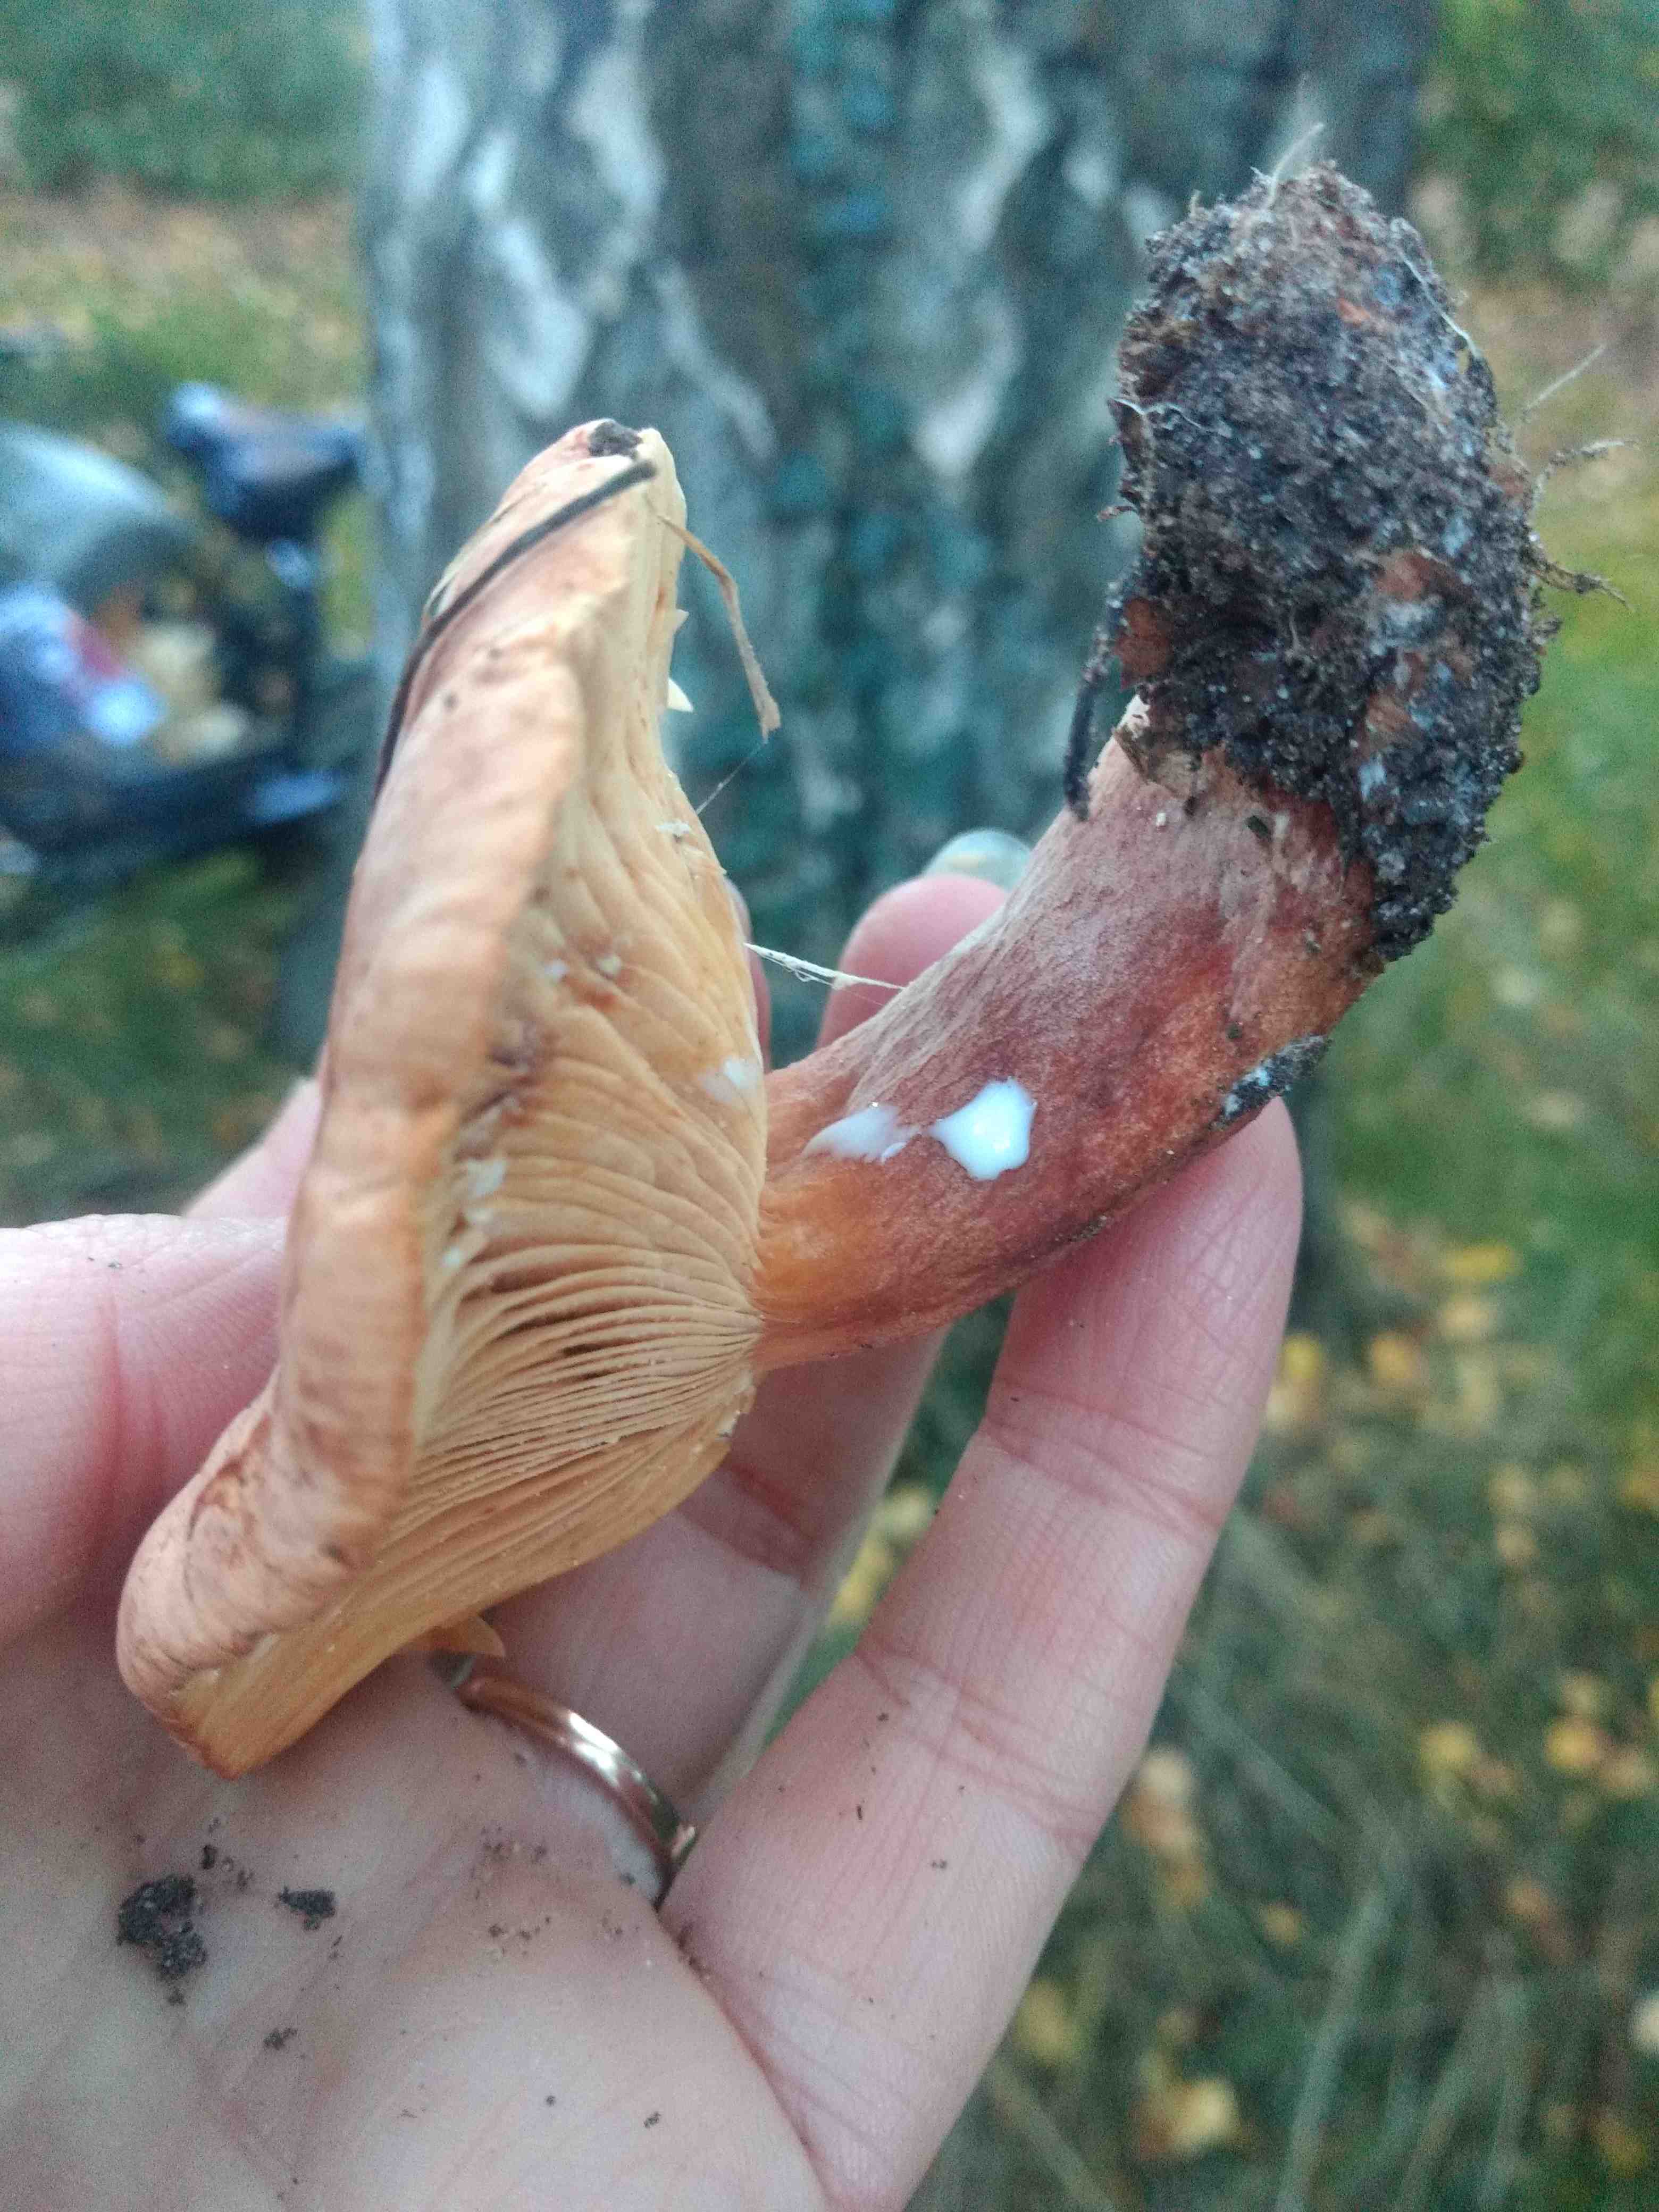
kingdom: Fungi
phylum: Basidiomycota
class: Agaricomycetes
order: Russulales
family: Russulaceae
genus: Lactarius
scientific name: Lactarius
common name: mælkehat
